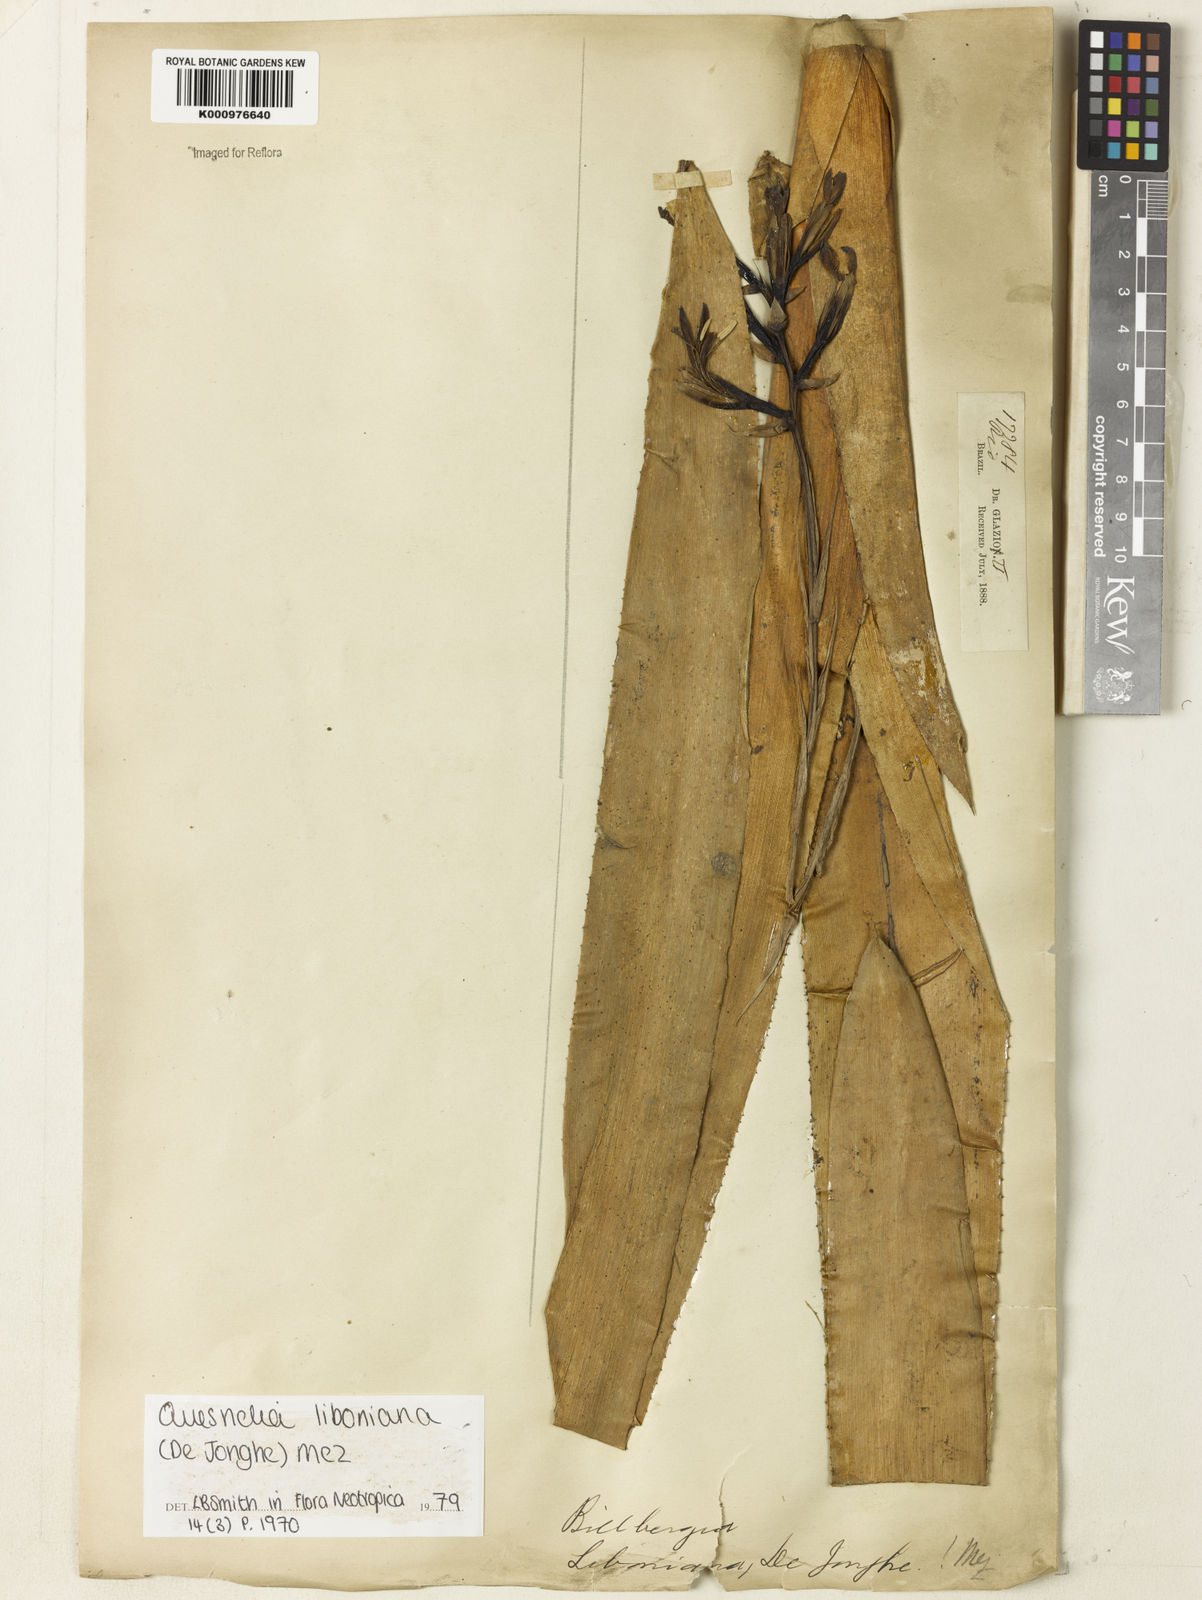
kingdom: Plantae
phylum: Tracheophyta
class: Liliopsida
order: Poales
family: Bromeliaceae
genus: Quesnelia
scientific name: Quesnelia liboniana
